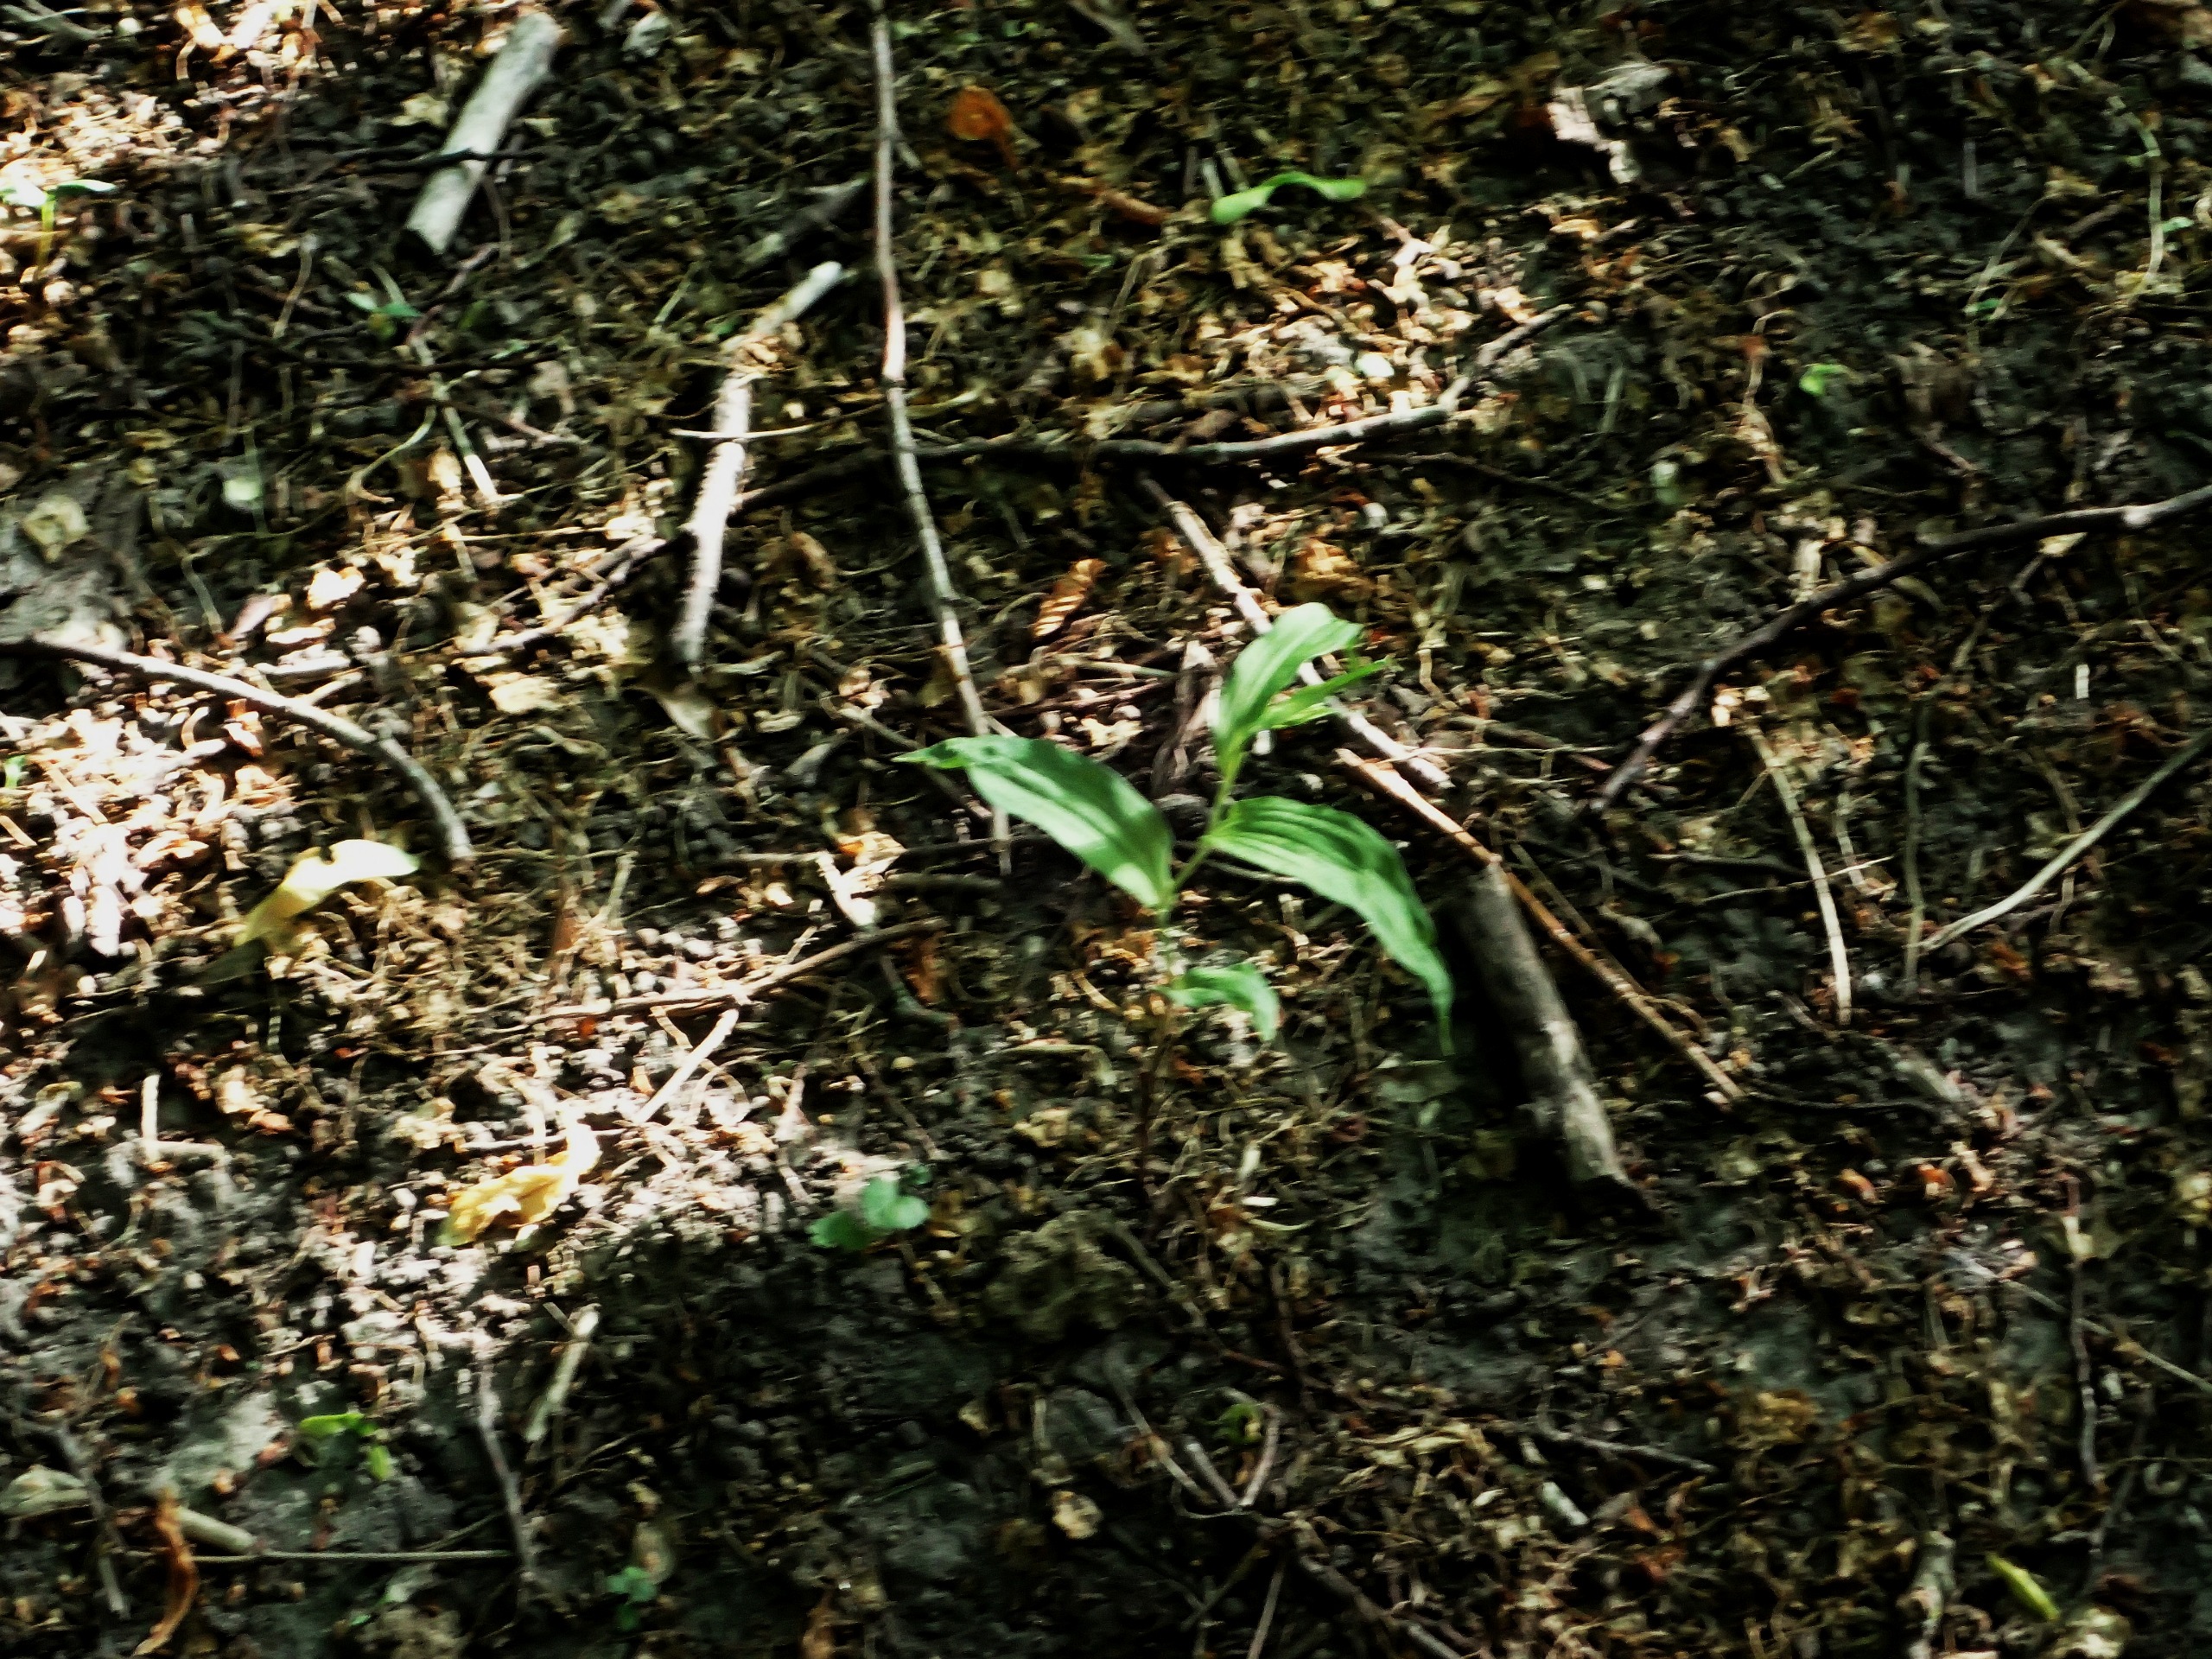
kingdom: Plantae
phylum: Tracheophyta
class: Liliopsida
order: Asparagales
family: Orchidaceae
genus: Epipactis
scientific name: Epipactis helleborine
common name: Skov-hullæbe
